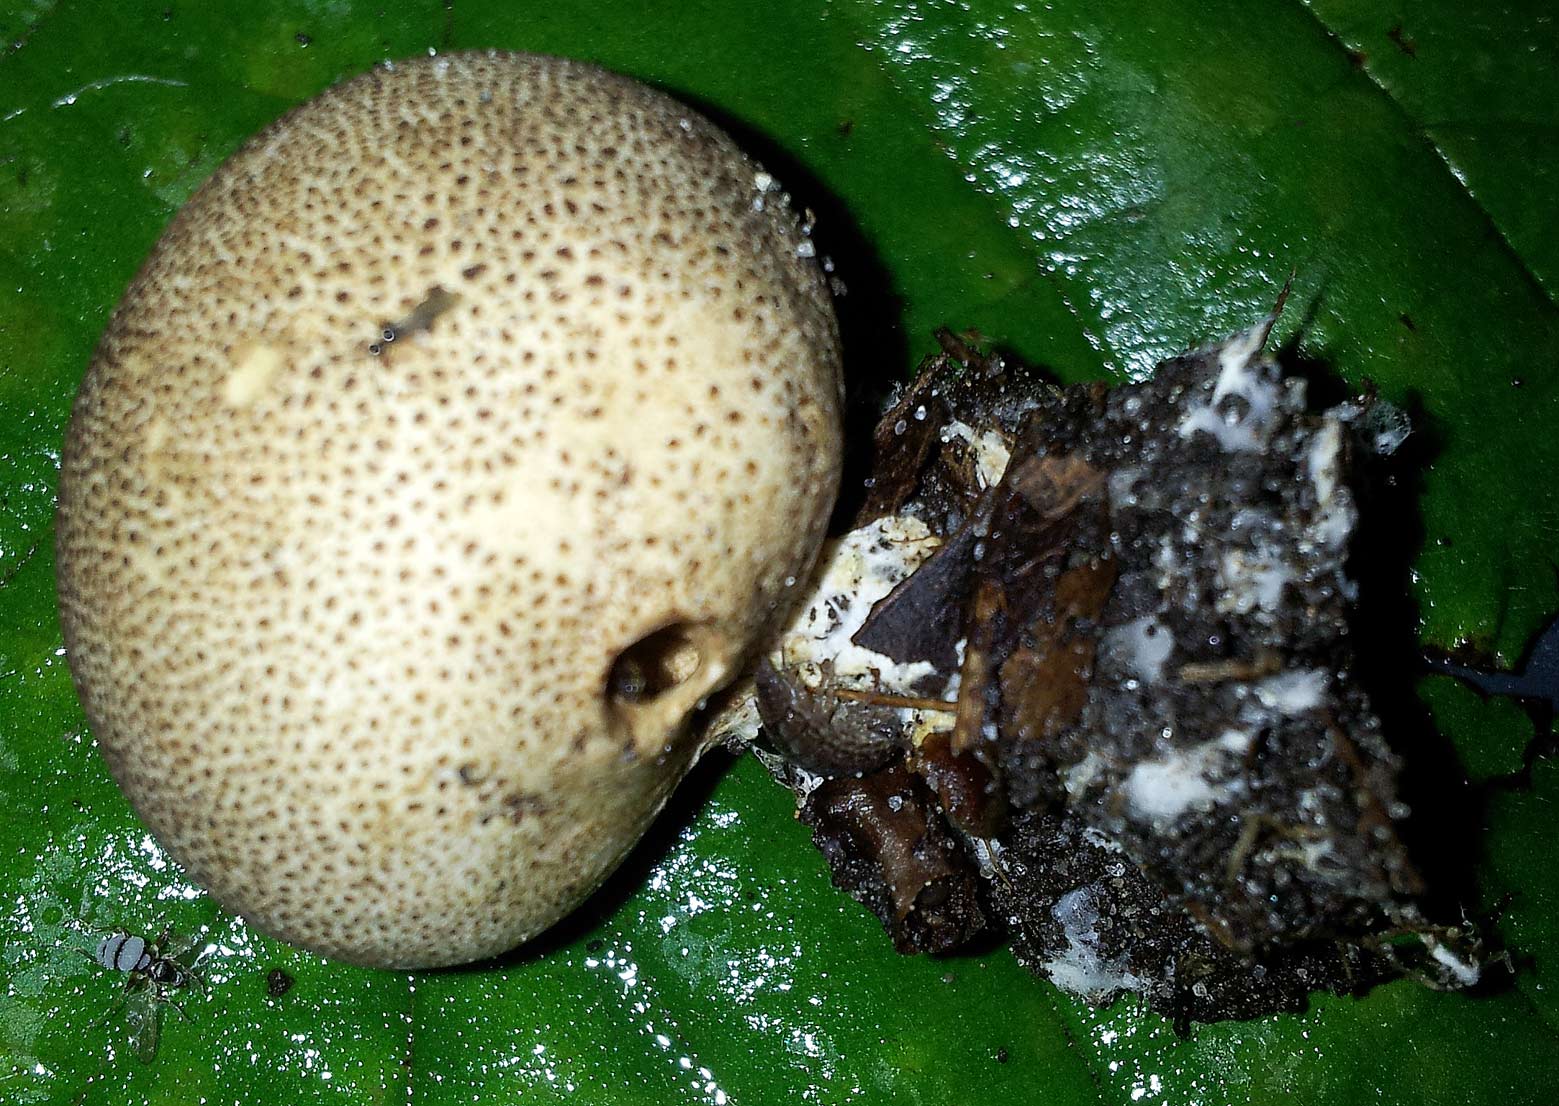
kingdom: Fungi
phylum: Basidiomycota
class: Agaricomycetes
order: Boletales
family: Sclerodermataceae
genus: Scleroderma
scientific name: Scleroderma areolatum
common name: plettet bruskbold
